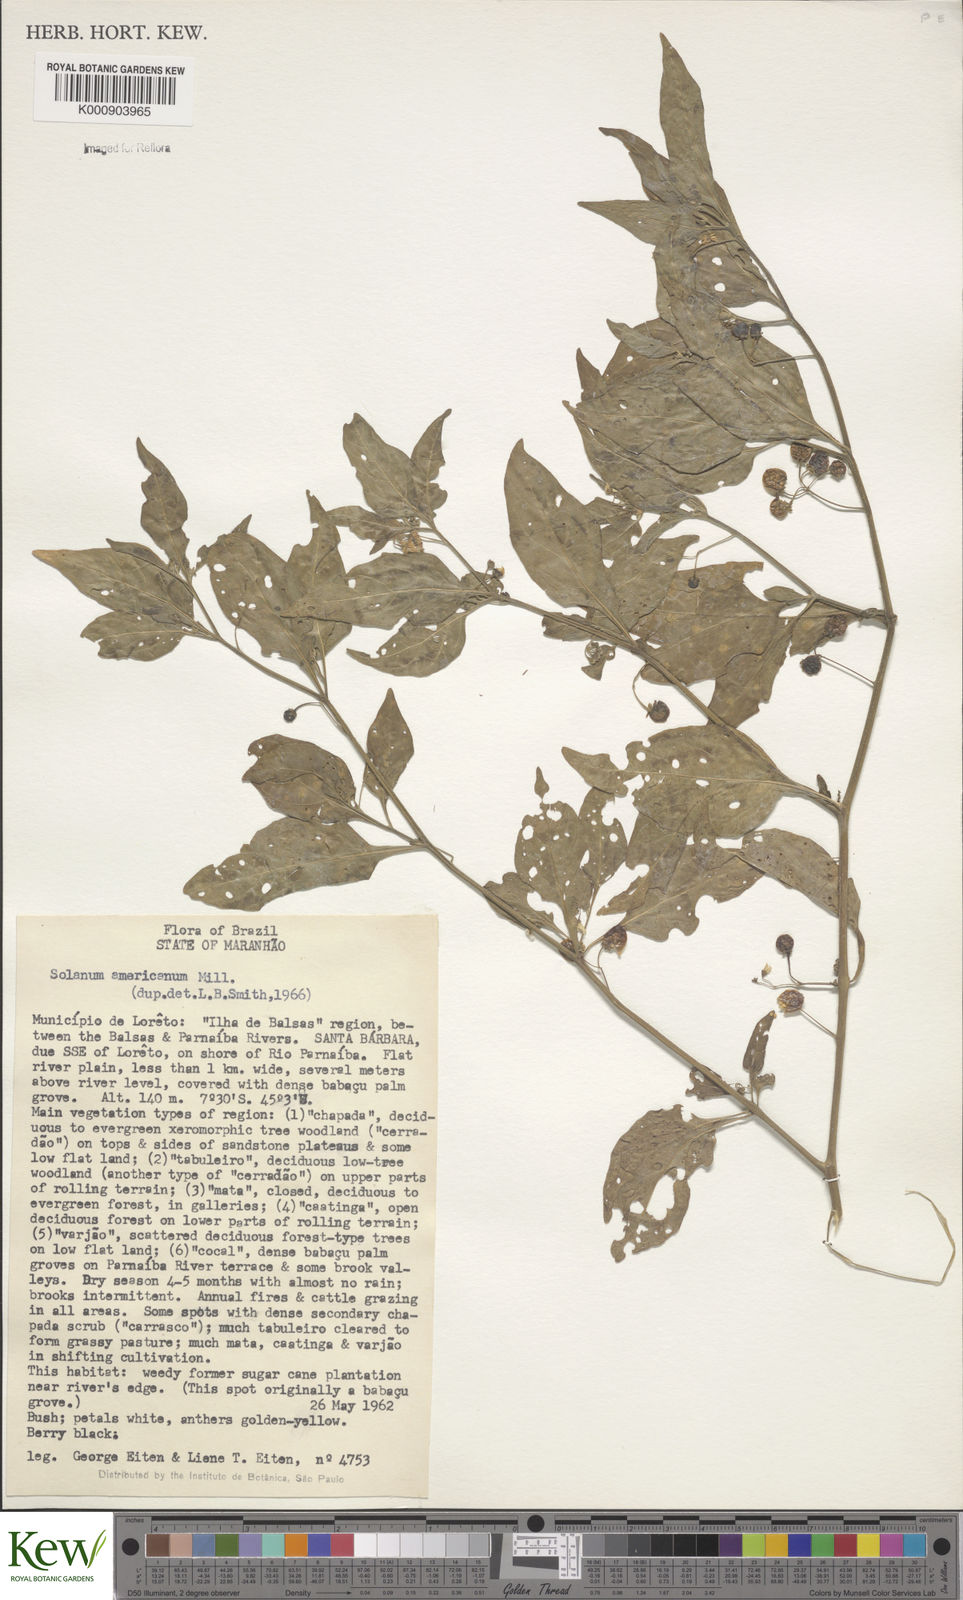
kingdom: Plantae
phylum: Tracheophyta
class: Magnoliopsida
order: Solanales
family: Solanaceae
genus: Solanum
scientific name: Solanum americanum
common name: American black nightshade
